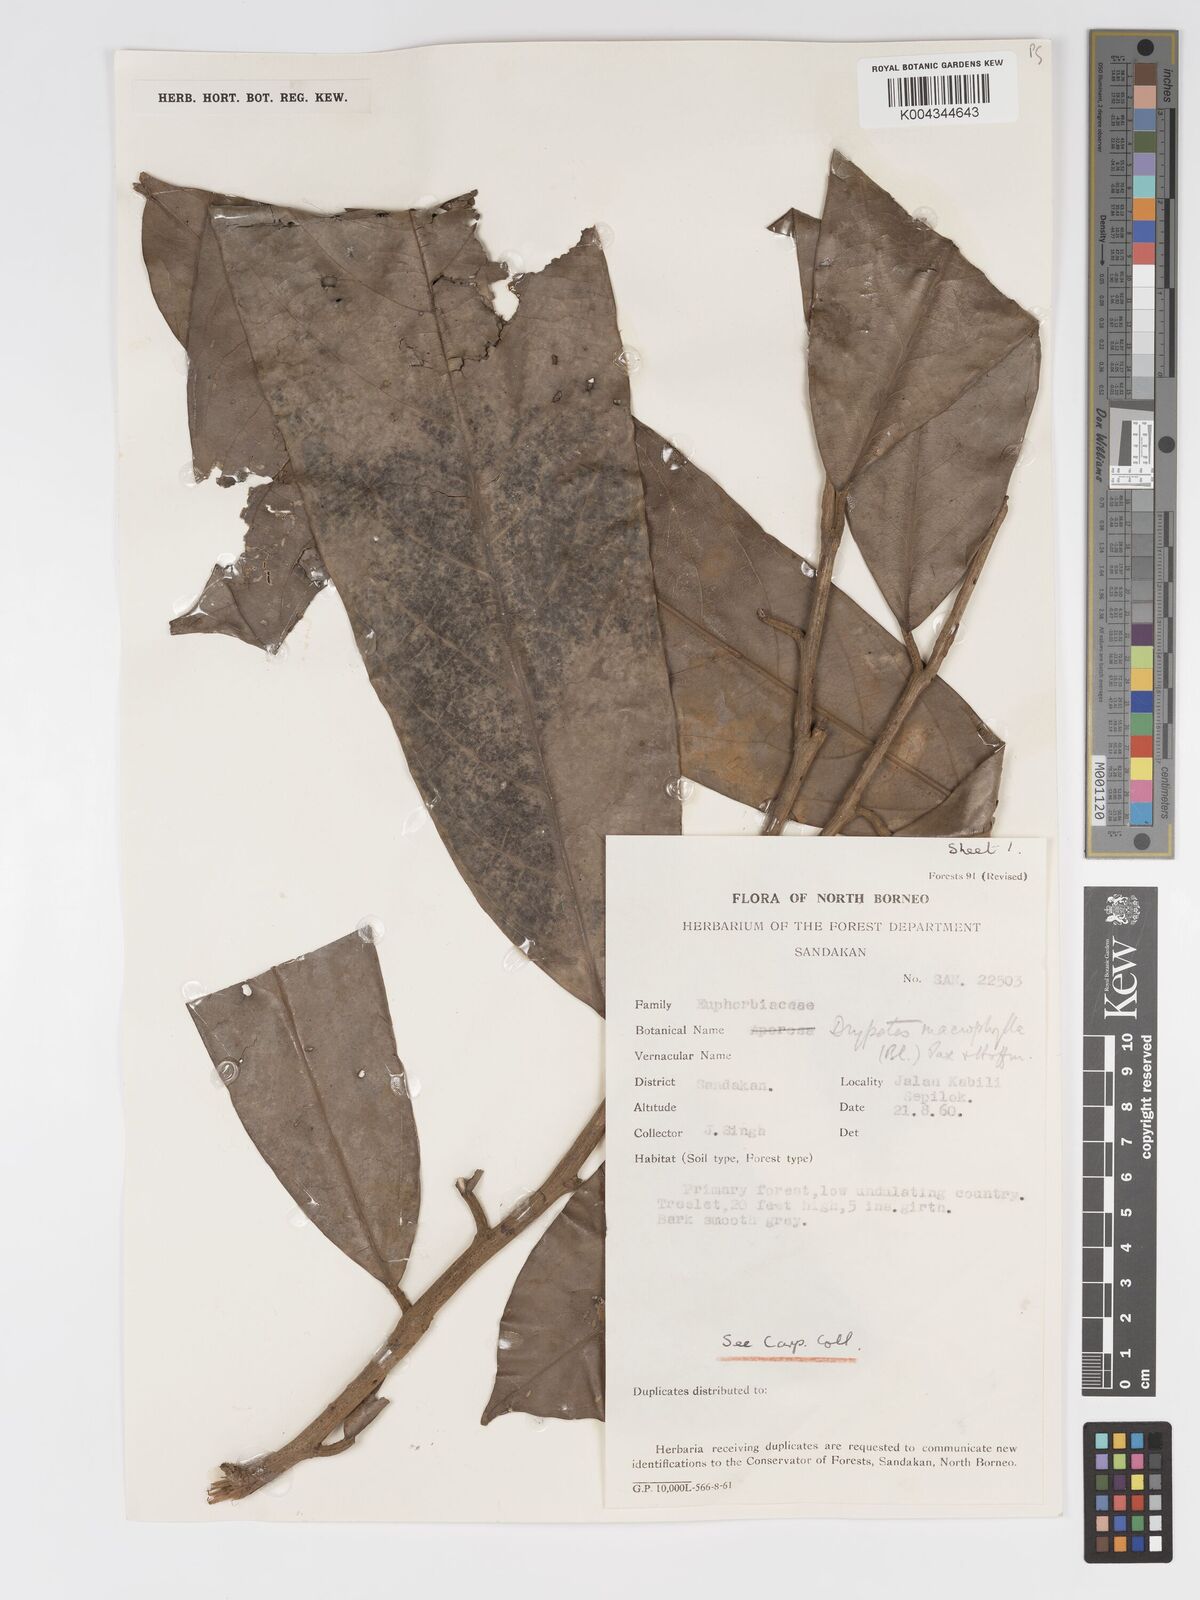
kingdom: Plantae
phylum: Tracheophyta
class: Magnoliopsida
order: Malpighiales
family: Putranjivaceae
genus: Drypetes
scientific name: Drypetes longifolia
